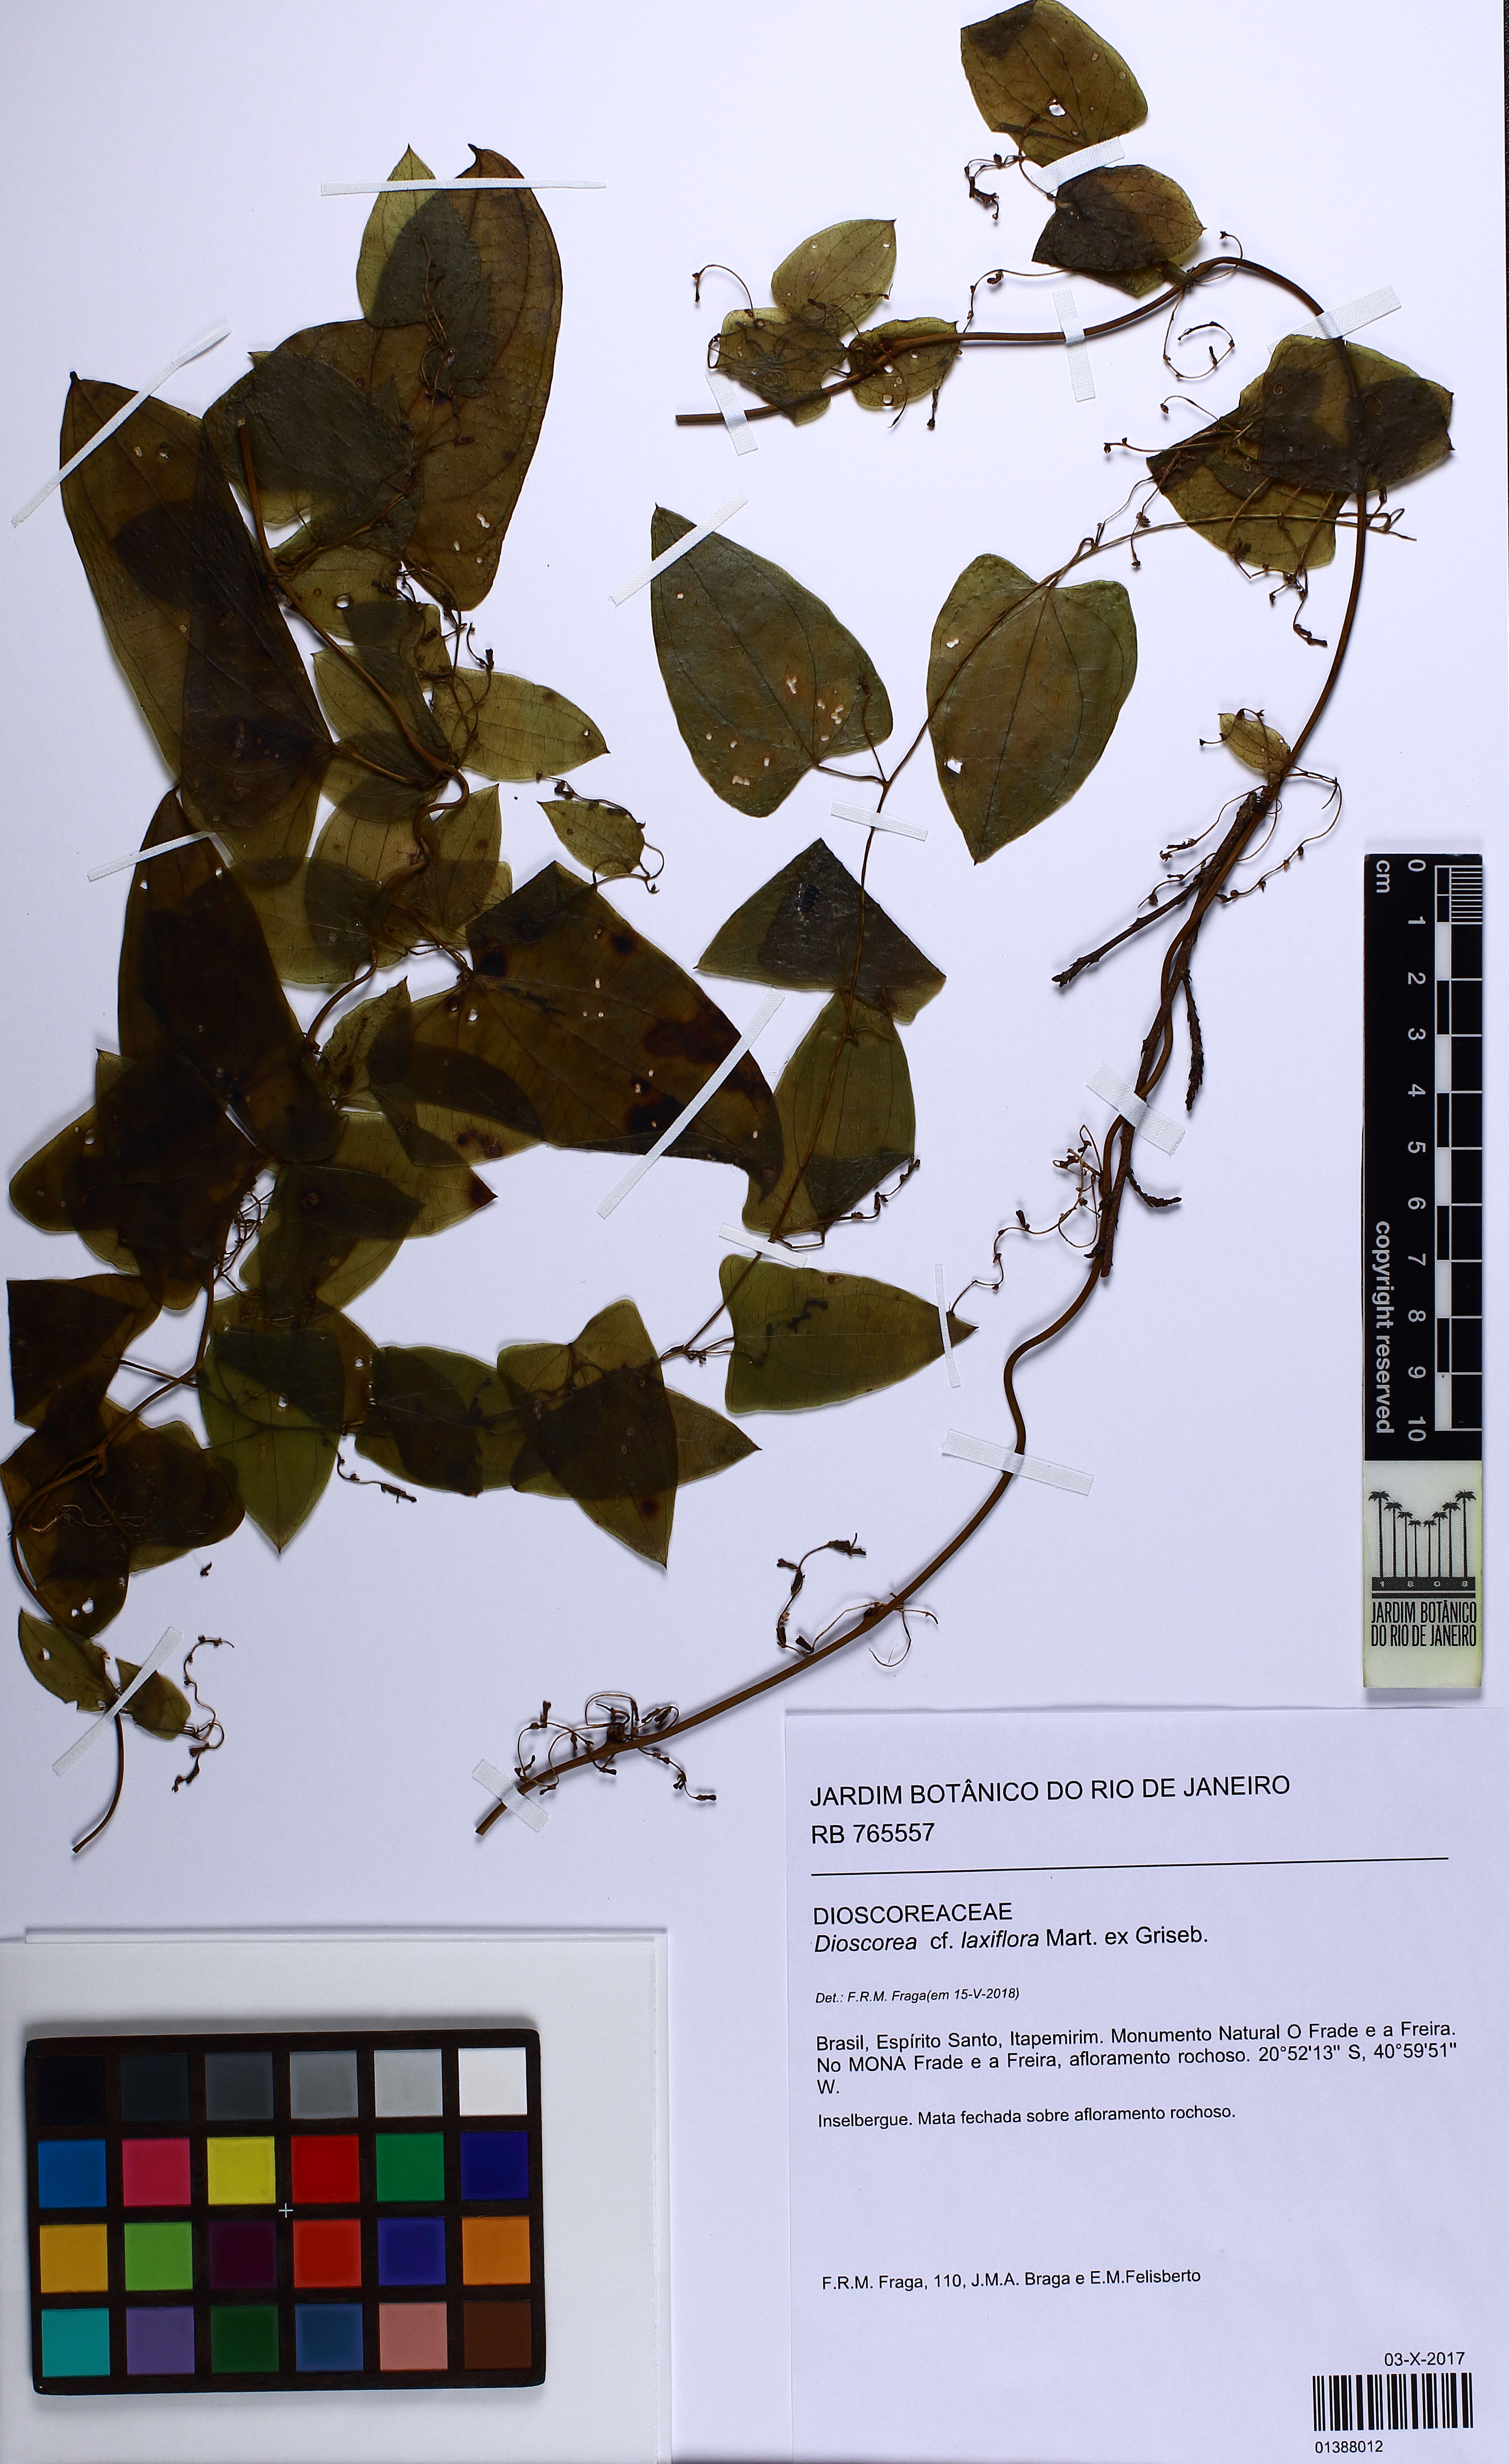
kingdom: Plantae
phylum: Tracheophyta
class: Liliopsida
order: Dioscoreales
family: Dioscoreaceae
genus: Dioscorea
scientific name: Dioscorea laxiflora
